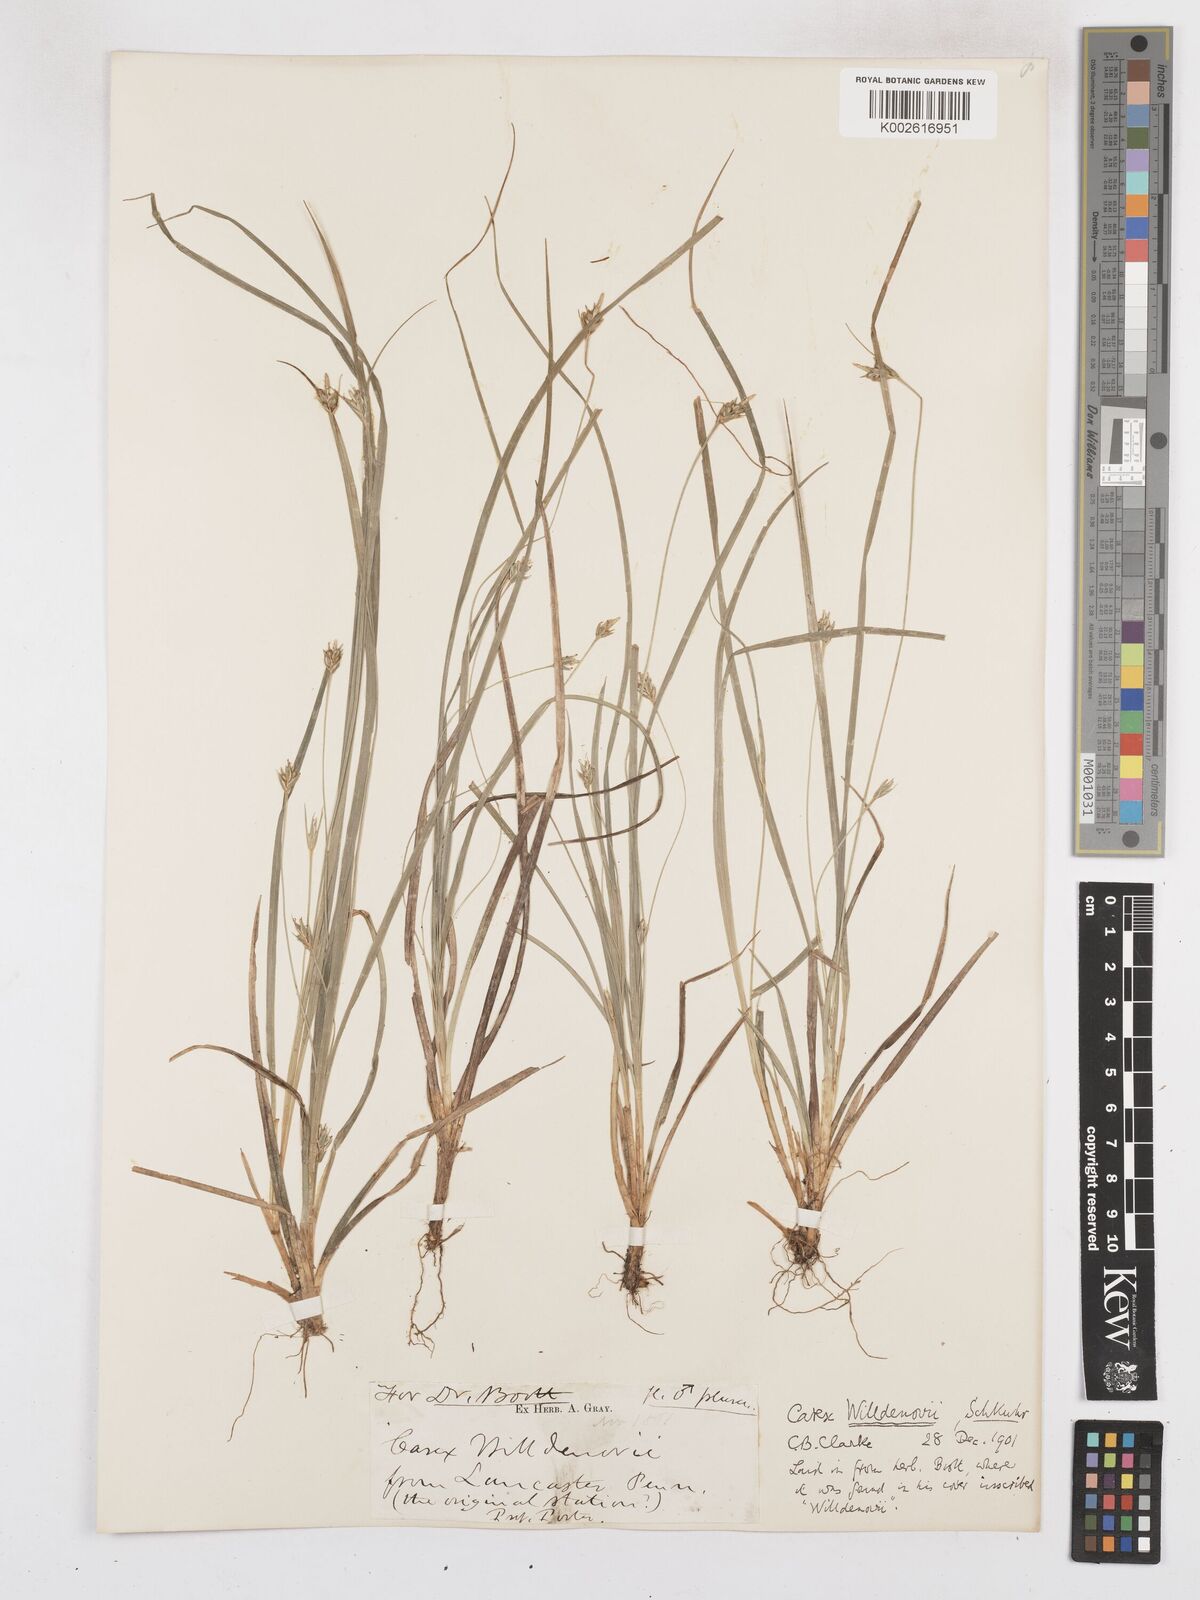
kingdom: Plantae
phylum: Tracheophyta
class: Liliopsida
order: Poales
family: Cyperaceae
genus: Carex
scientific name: Carex willdenowii
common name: Willdenow's sedge
